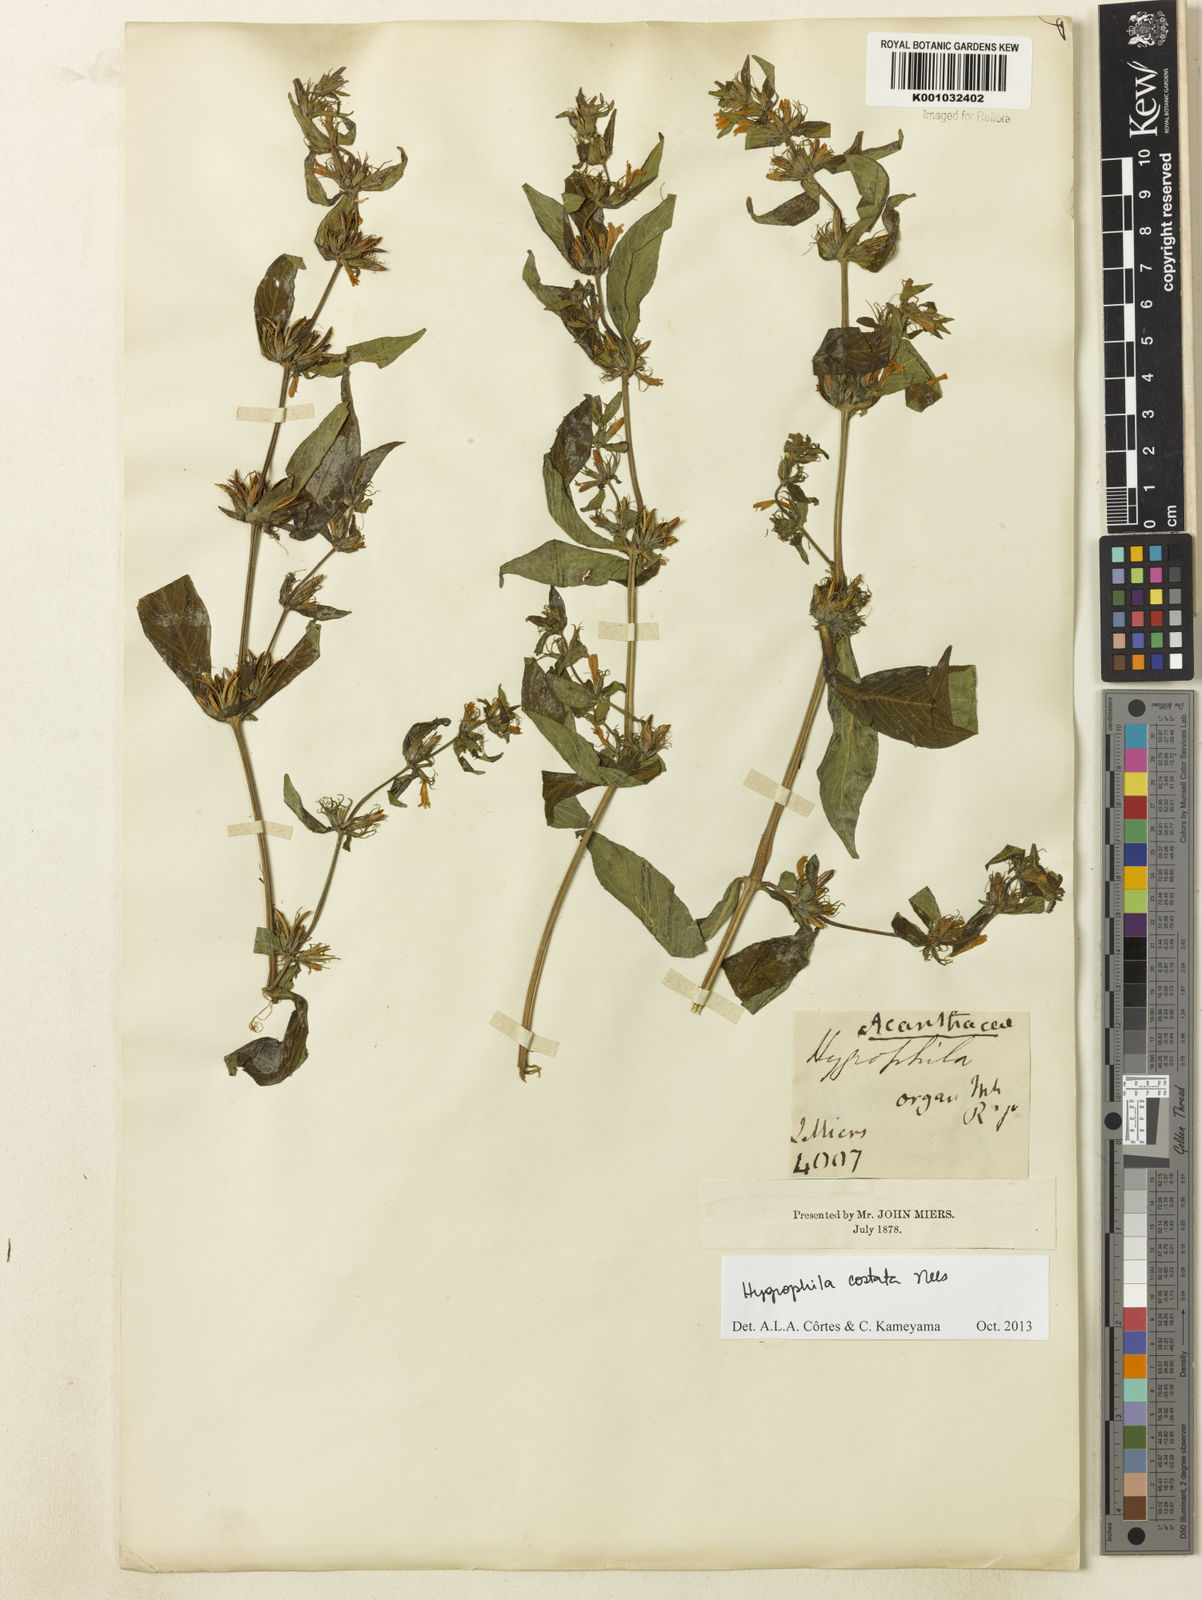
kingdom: Plantae
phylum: Tracheophyta
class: Magnoliopsida
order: Lamiales
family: Acanthaceae
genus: Hygrophila
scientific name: Hygrophila costata
